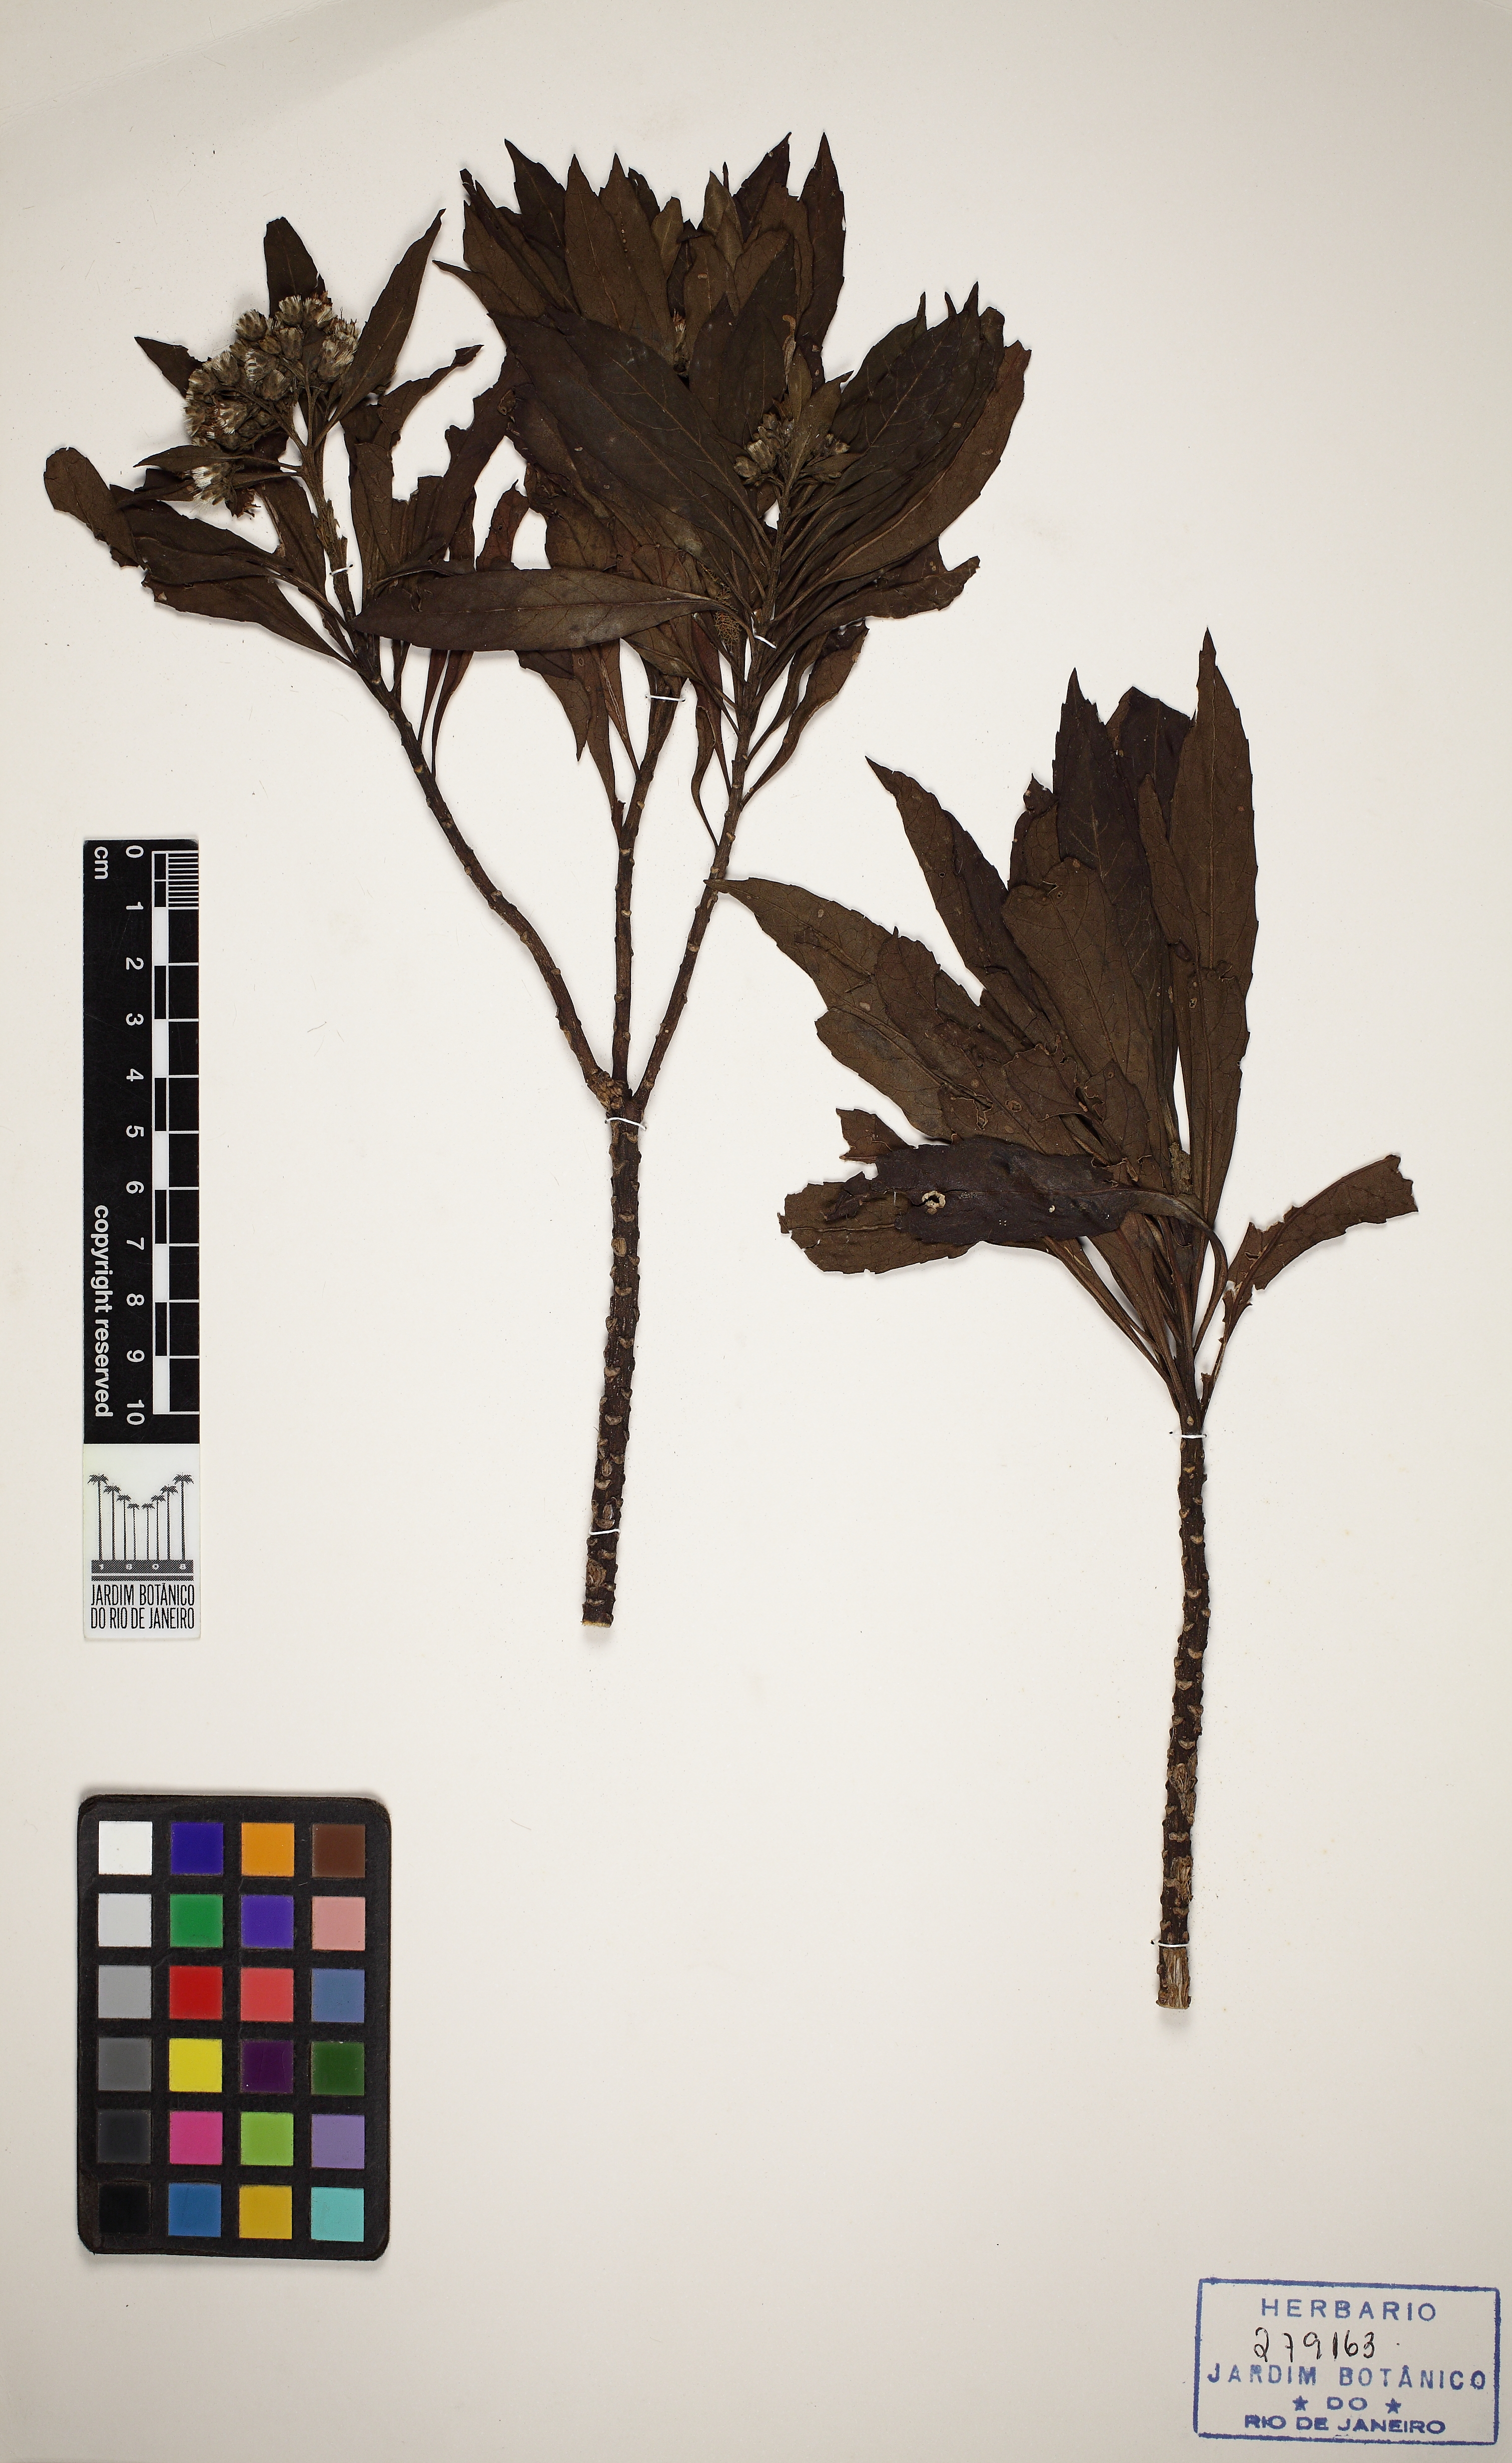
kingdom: Plantae
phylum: Tracheophyta
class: Magnoliopsida
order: Asterales
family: Asteraceae
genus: Lepidaploa
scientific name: Lepidaploa macahensis
